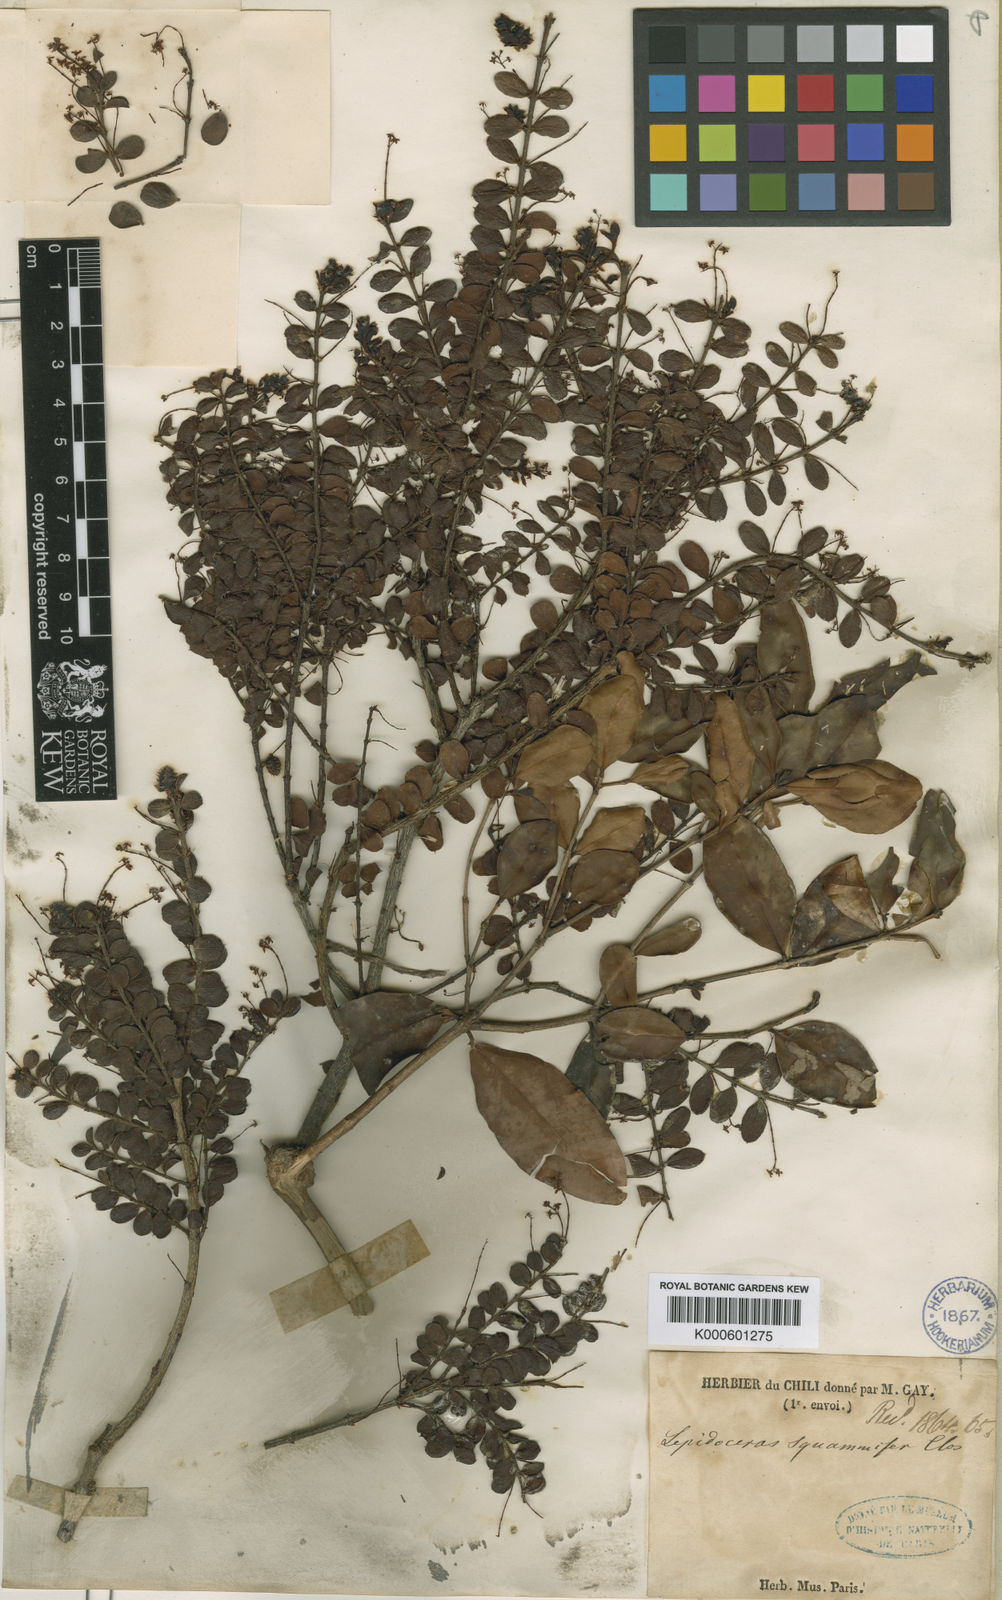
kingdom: Plantae
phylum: Tracheophyta
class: Magnoliopsida
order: Santalales
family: Santalaceae
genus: Lepidoceras
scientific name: Lepidoceras chilense
